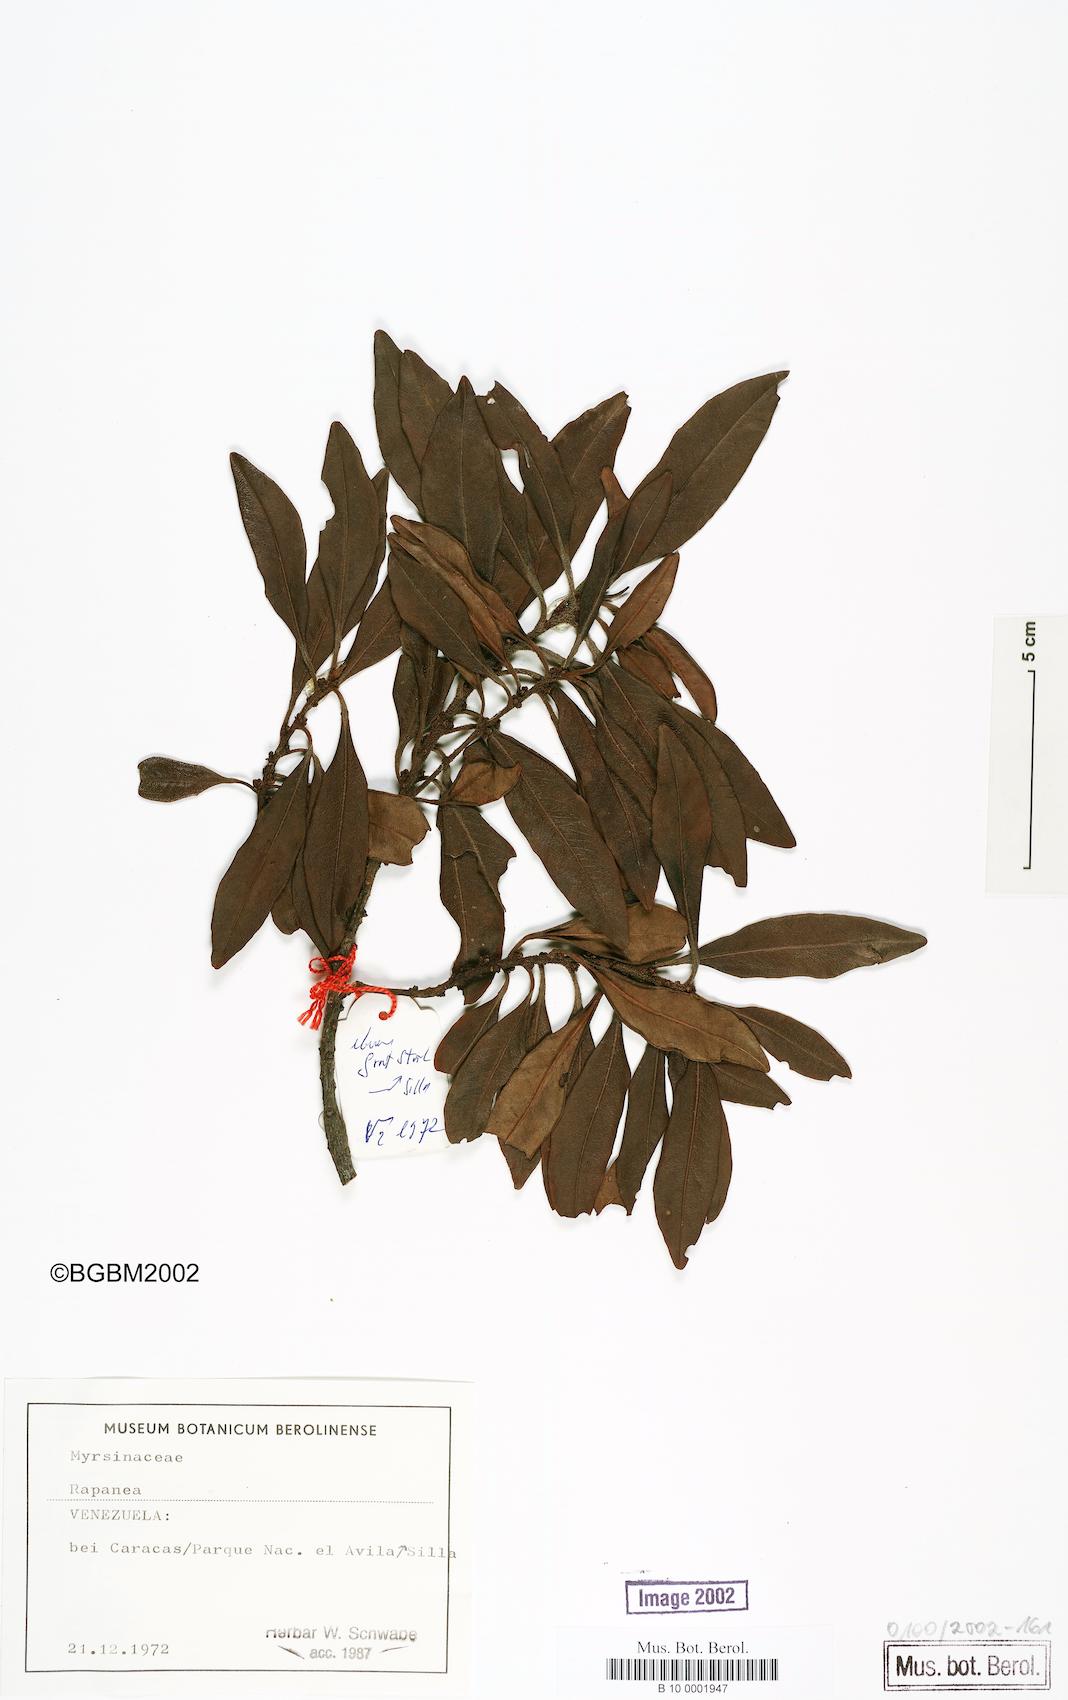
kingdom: Plantae
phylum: Tracheophyta
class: Magnoliopsida
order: Ericales
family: Primulaceae
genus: Myrsine
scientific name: Myrsine
